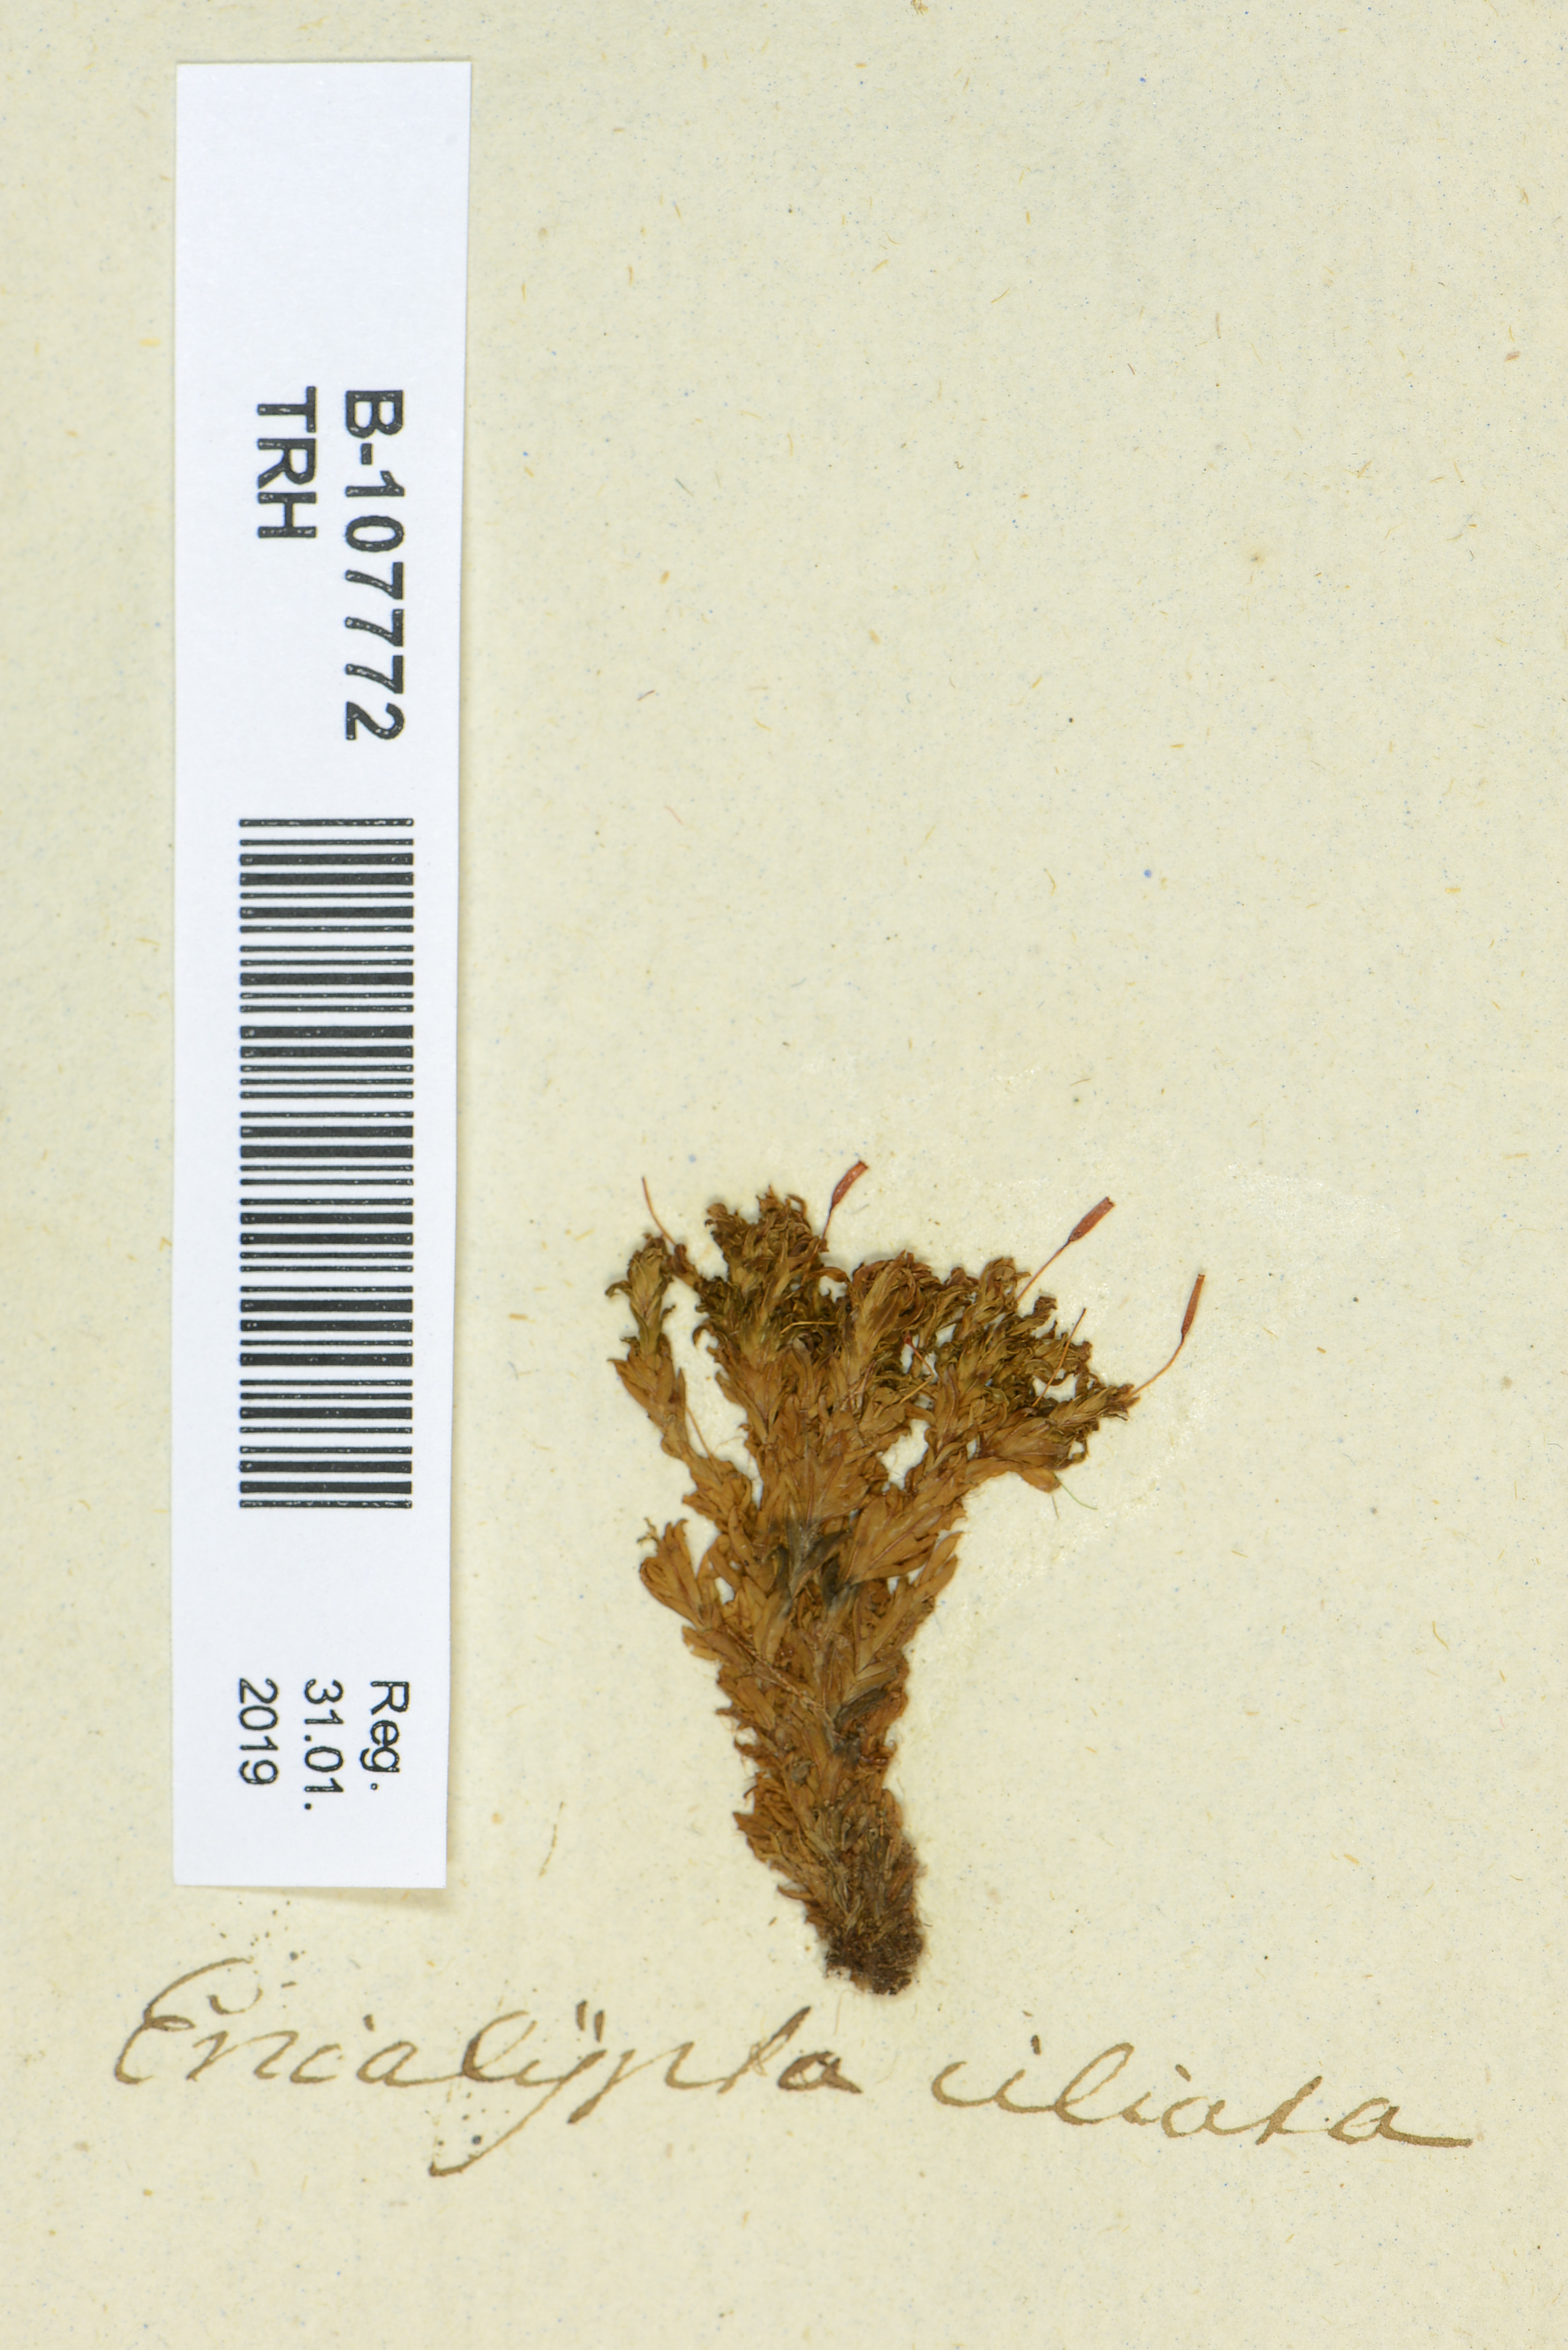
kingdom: Plantae
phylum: Bryophyta
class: Bryopsida
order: Encalyptales
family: Encalyptaceae
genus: Encalypta
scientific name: Encalypta ciliata
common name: Fringed extinguisher-moss
